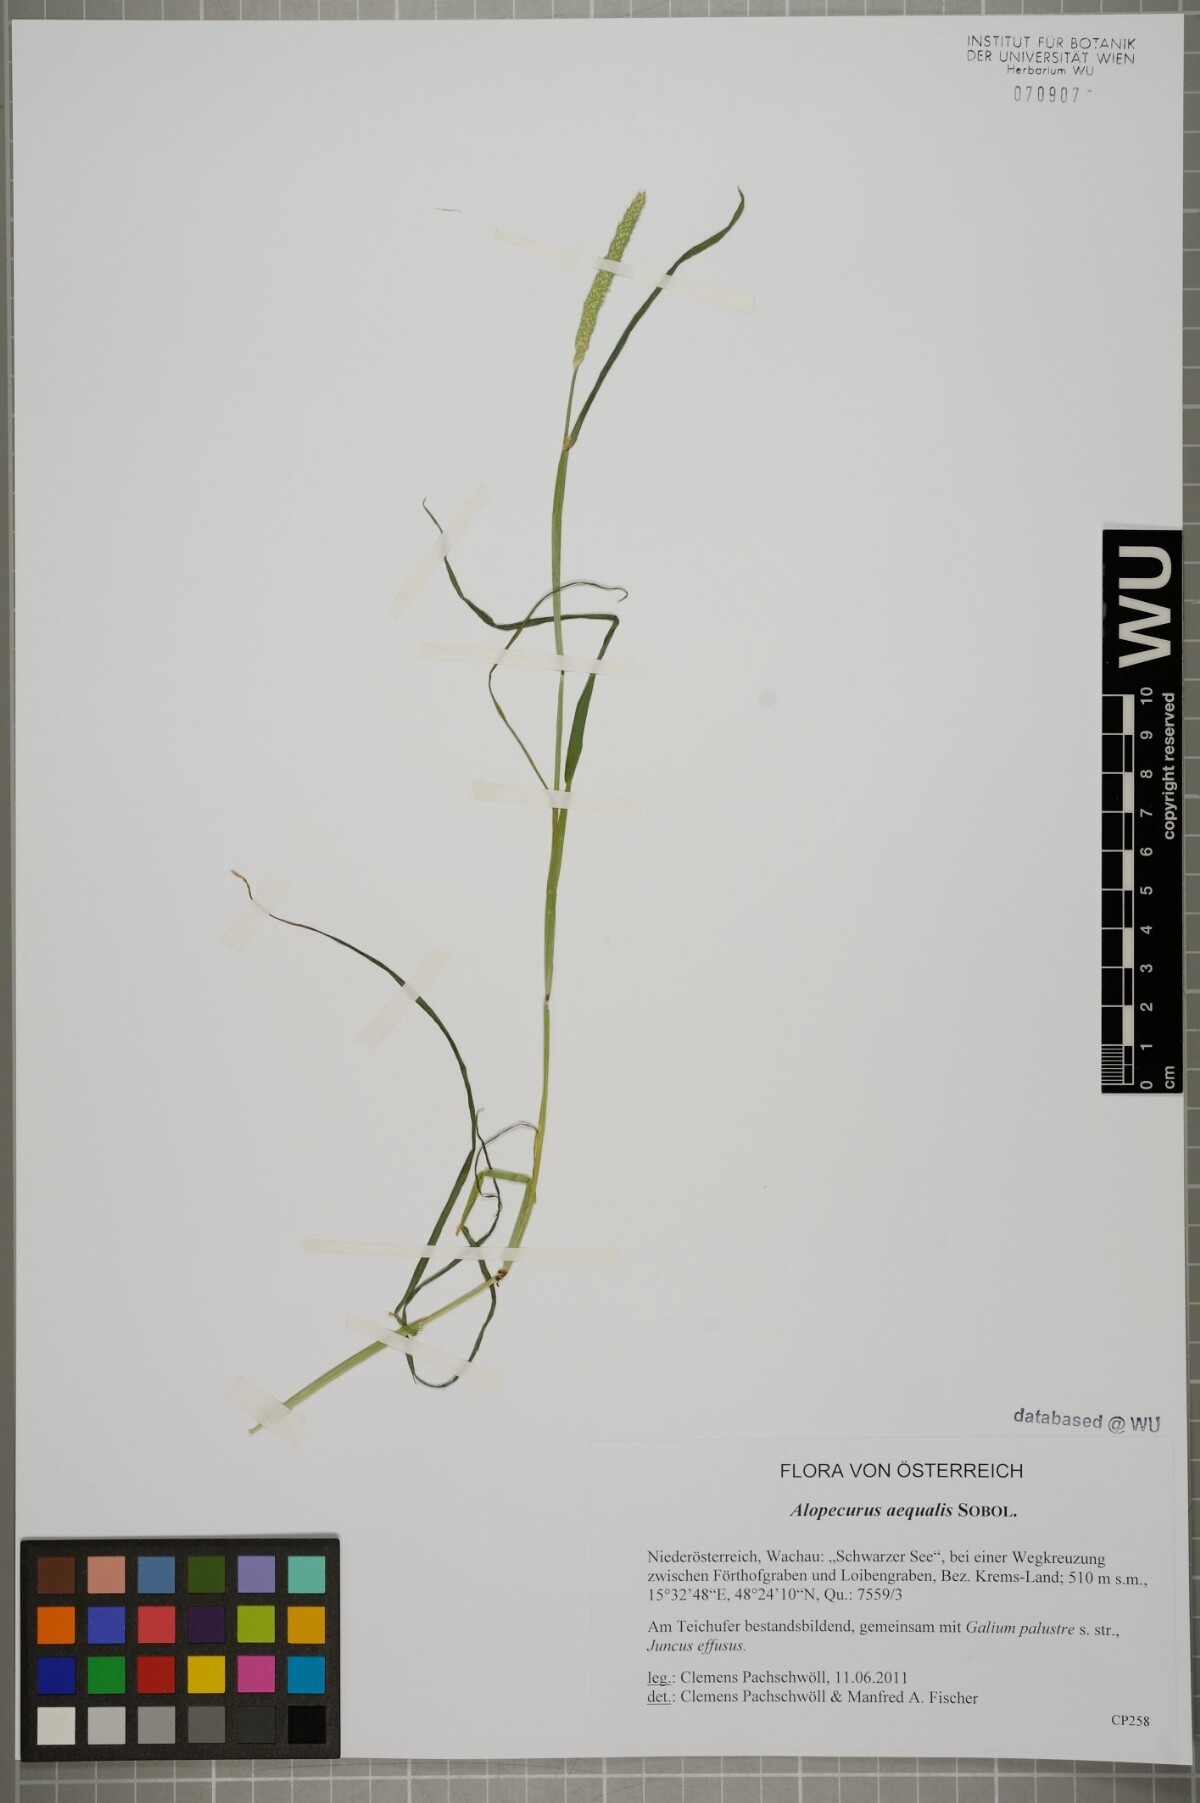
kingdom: Plantae
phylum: Tracheophyta
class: Liliopsida
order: Poales
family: Poaceae
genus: Alopecurus
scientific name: Alopecurus aequalis
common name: Orange foxtail
